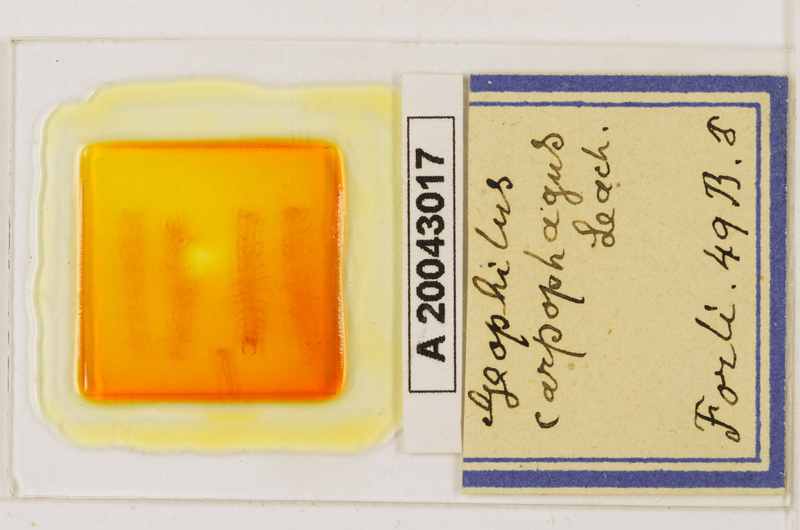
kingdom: Animalia
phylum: Arthropoda
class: Chilopoda
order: Geophilomorpha
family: Geophilidae
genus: Geophilus
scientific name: Geophilus carpophagus
